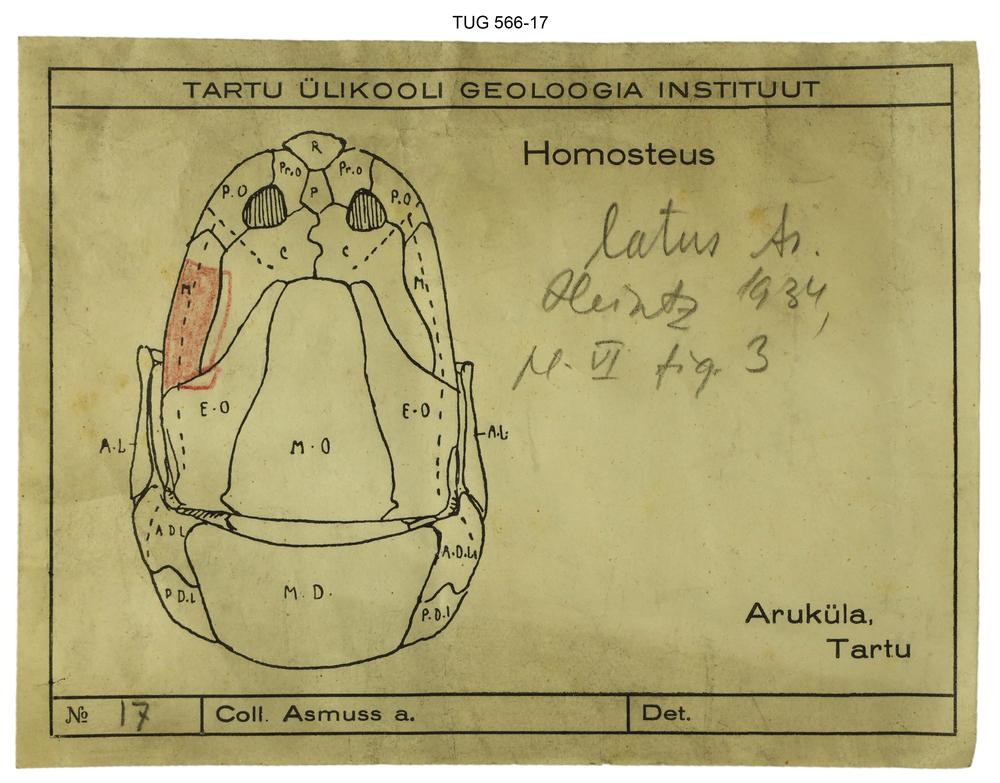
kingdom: Animalia
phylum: Chordata
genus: Homosteus
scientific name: Homosteus latus
